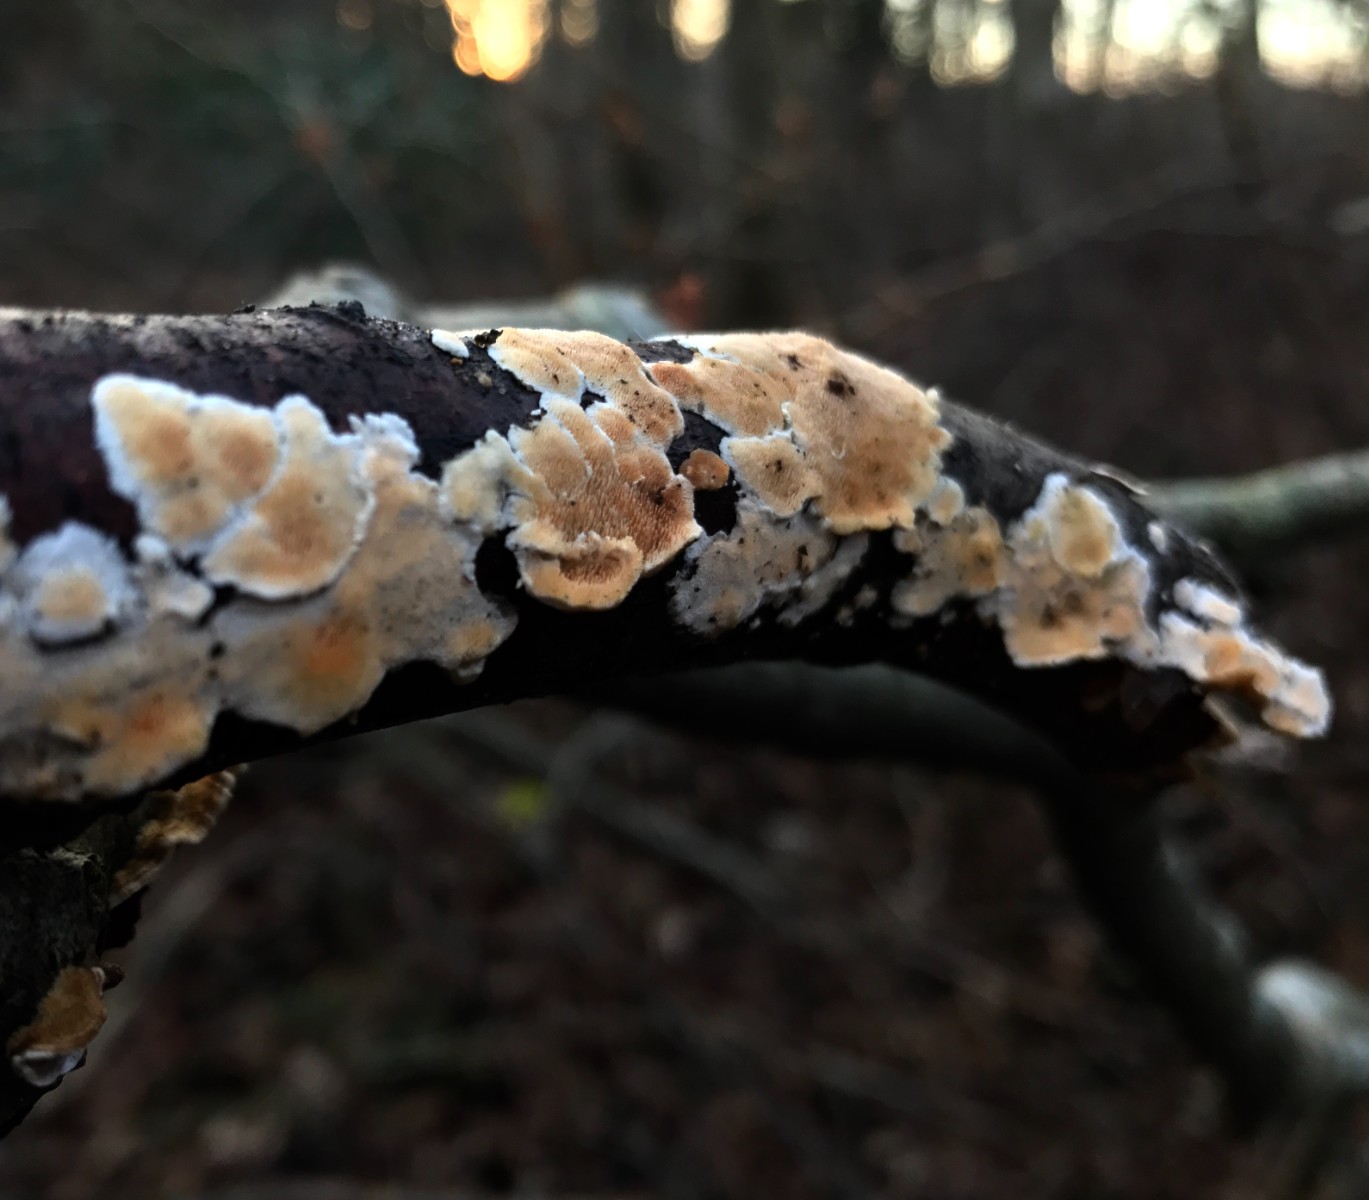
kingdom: Fungi
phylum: Basidiomycota
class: Agaricomycetes
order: Polyporales
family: Irpicaceae
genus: Byssomerulius
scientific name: Byssomerulius corium
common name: læder-åresvamp
